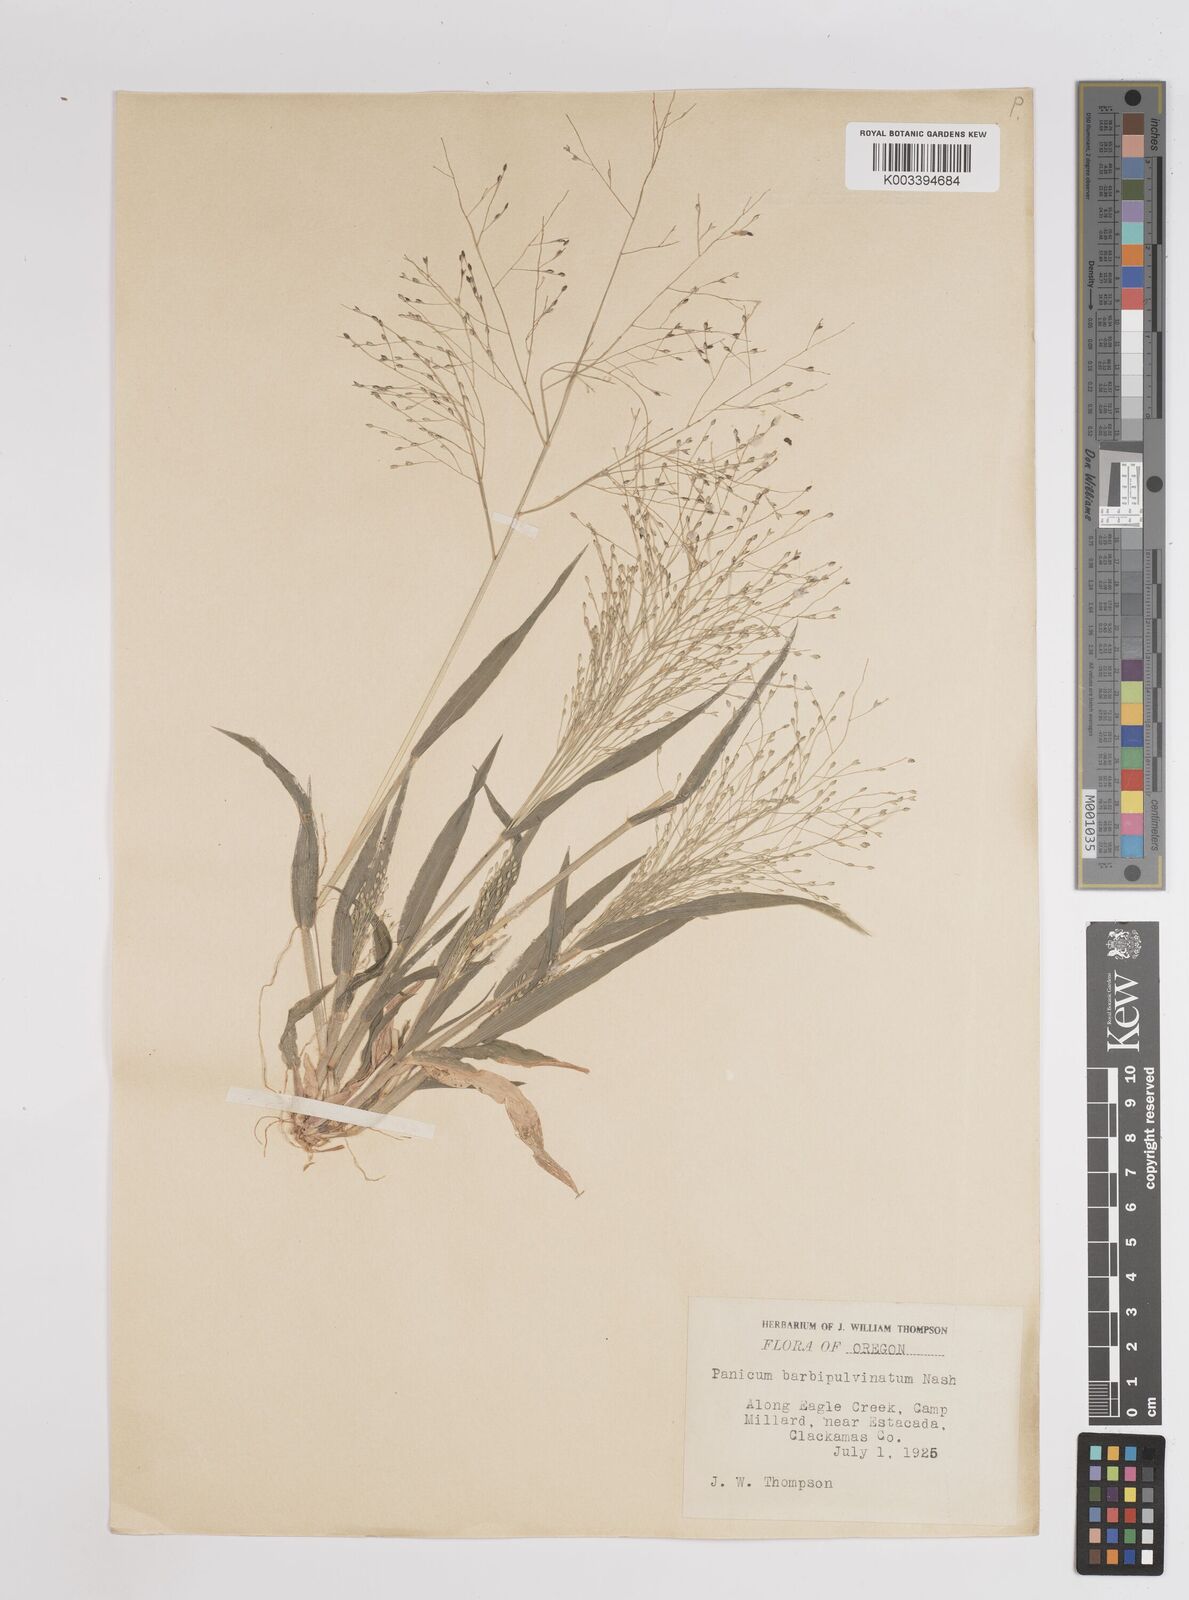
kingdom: Plantae
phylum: Tracheophyta
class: Liliopsida
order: Poales
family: Poaceae
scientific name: Poaceae
